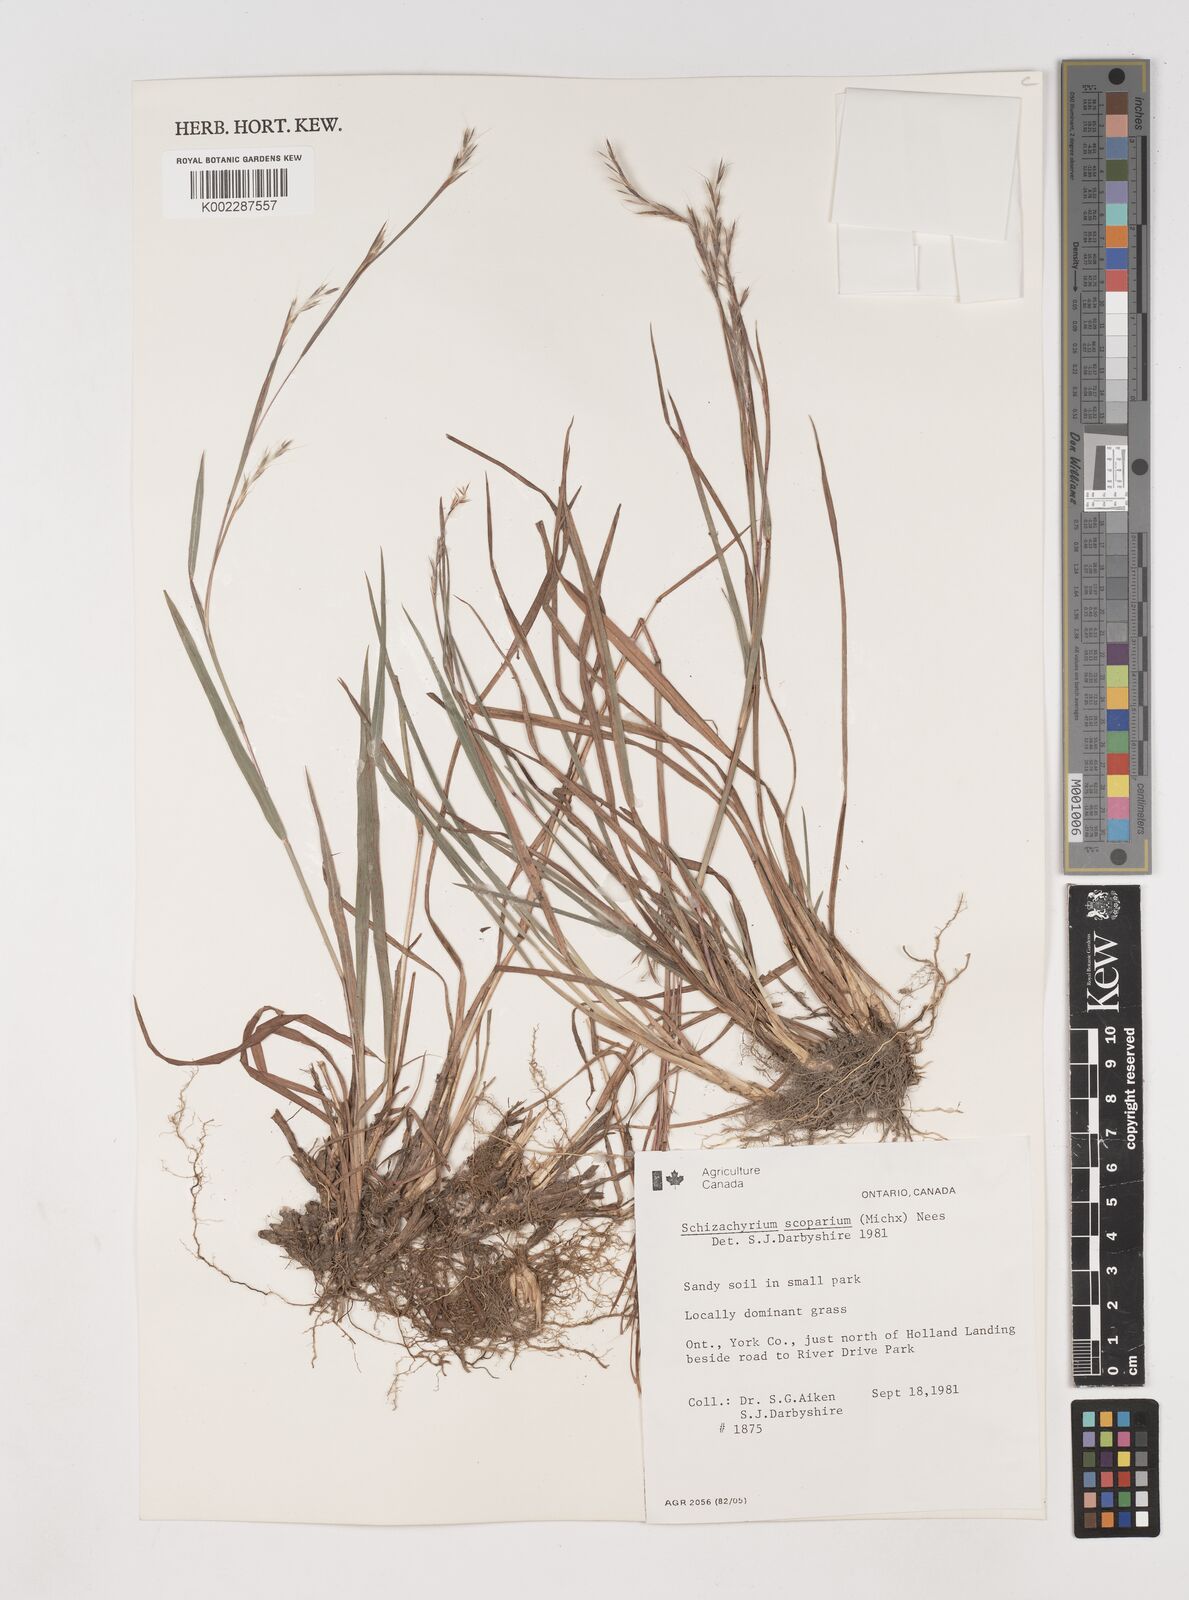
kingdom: Plantae
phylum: Tracheophyta
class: Liliopsida
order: Poales
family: Poaceae
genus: Schizachyrium
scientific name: Schizachyrium scoparium
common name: Little bluestem
